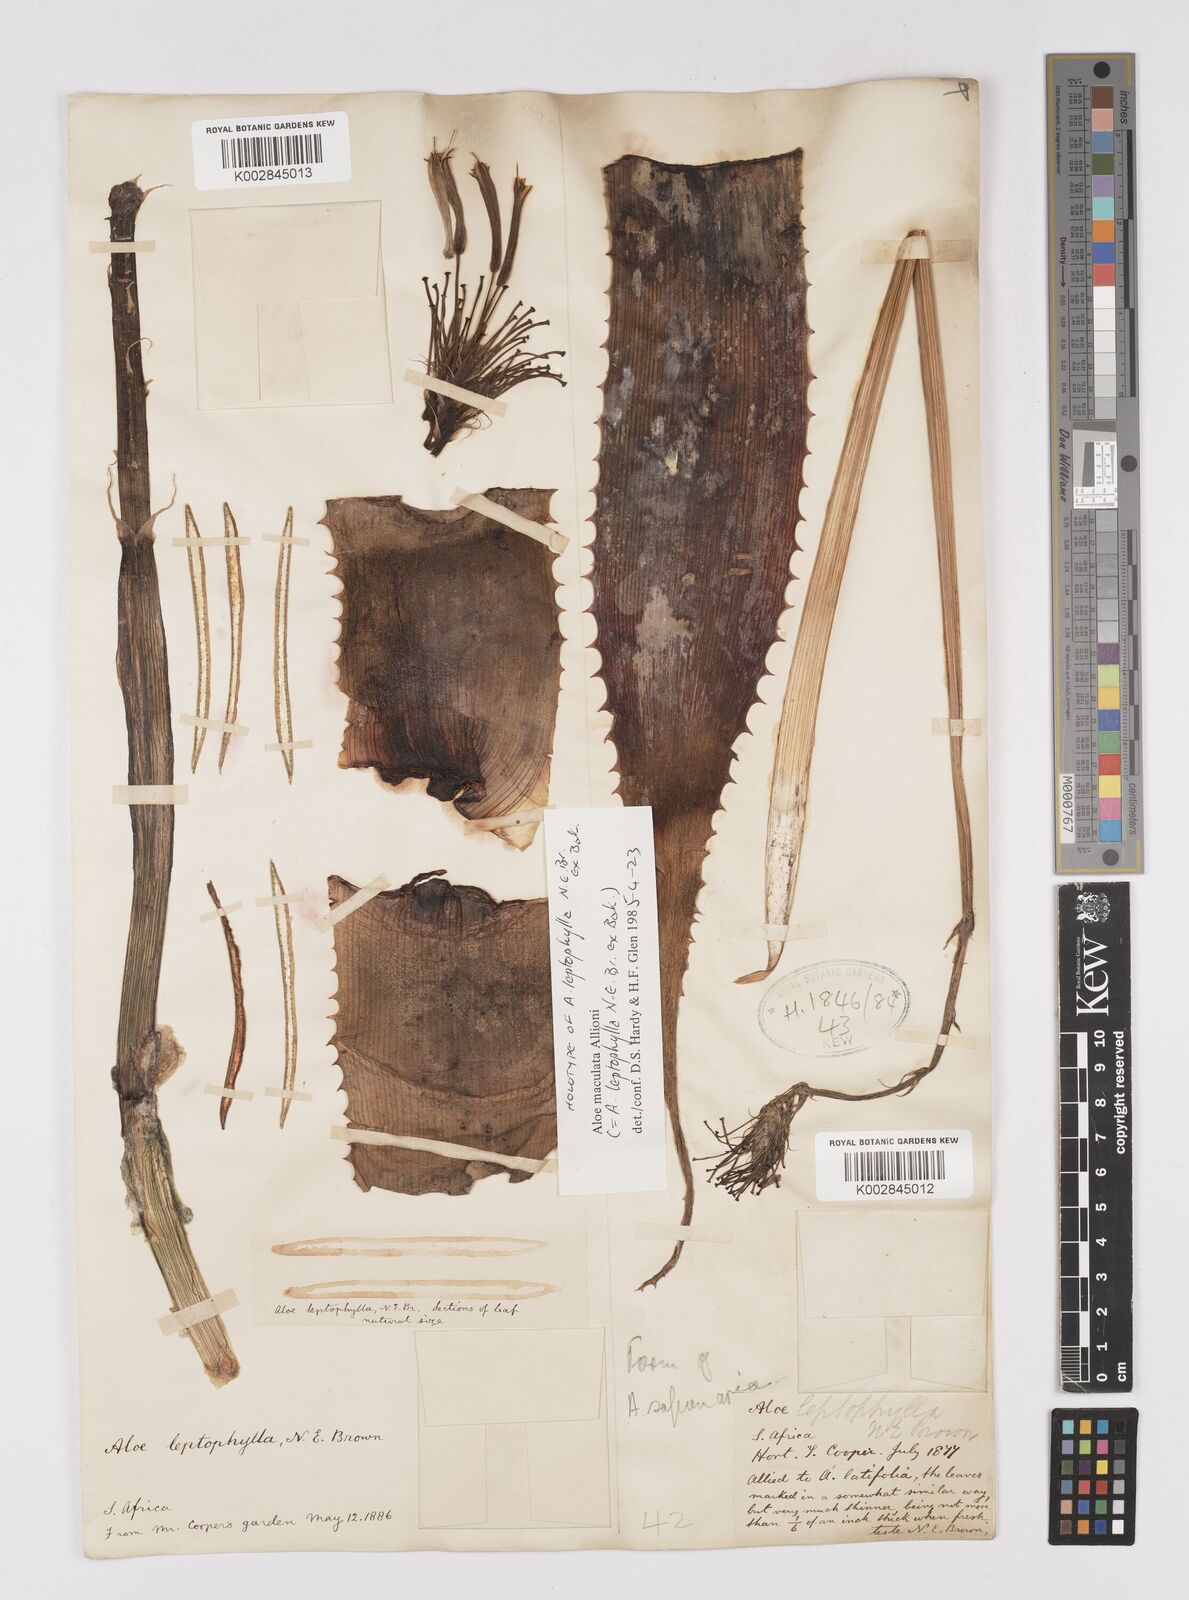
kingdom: Plantae
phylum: Tracheophyta
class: Liliopsida
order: Asparagales
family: Asphodelaceae
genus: Aloe
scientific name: Aloe microstigma
